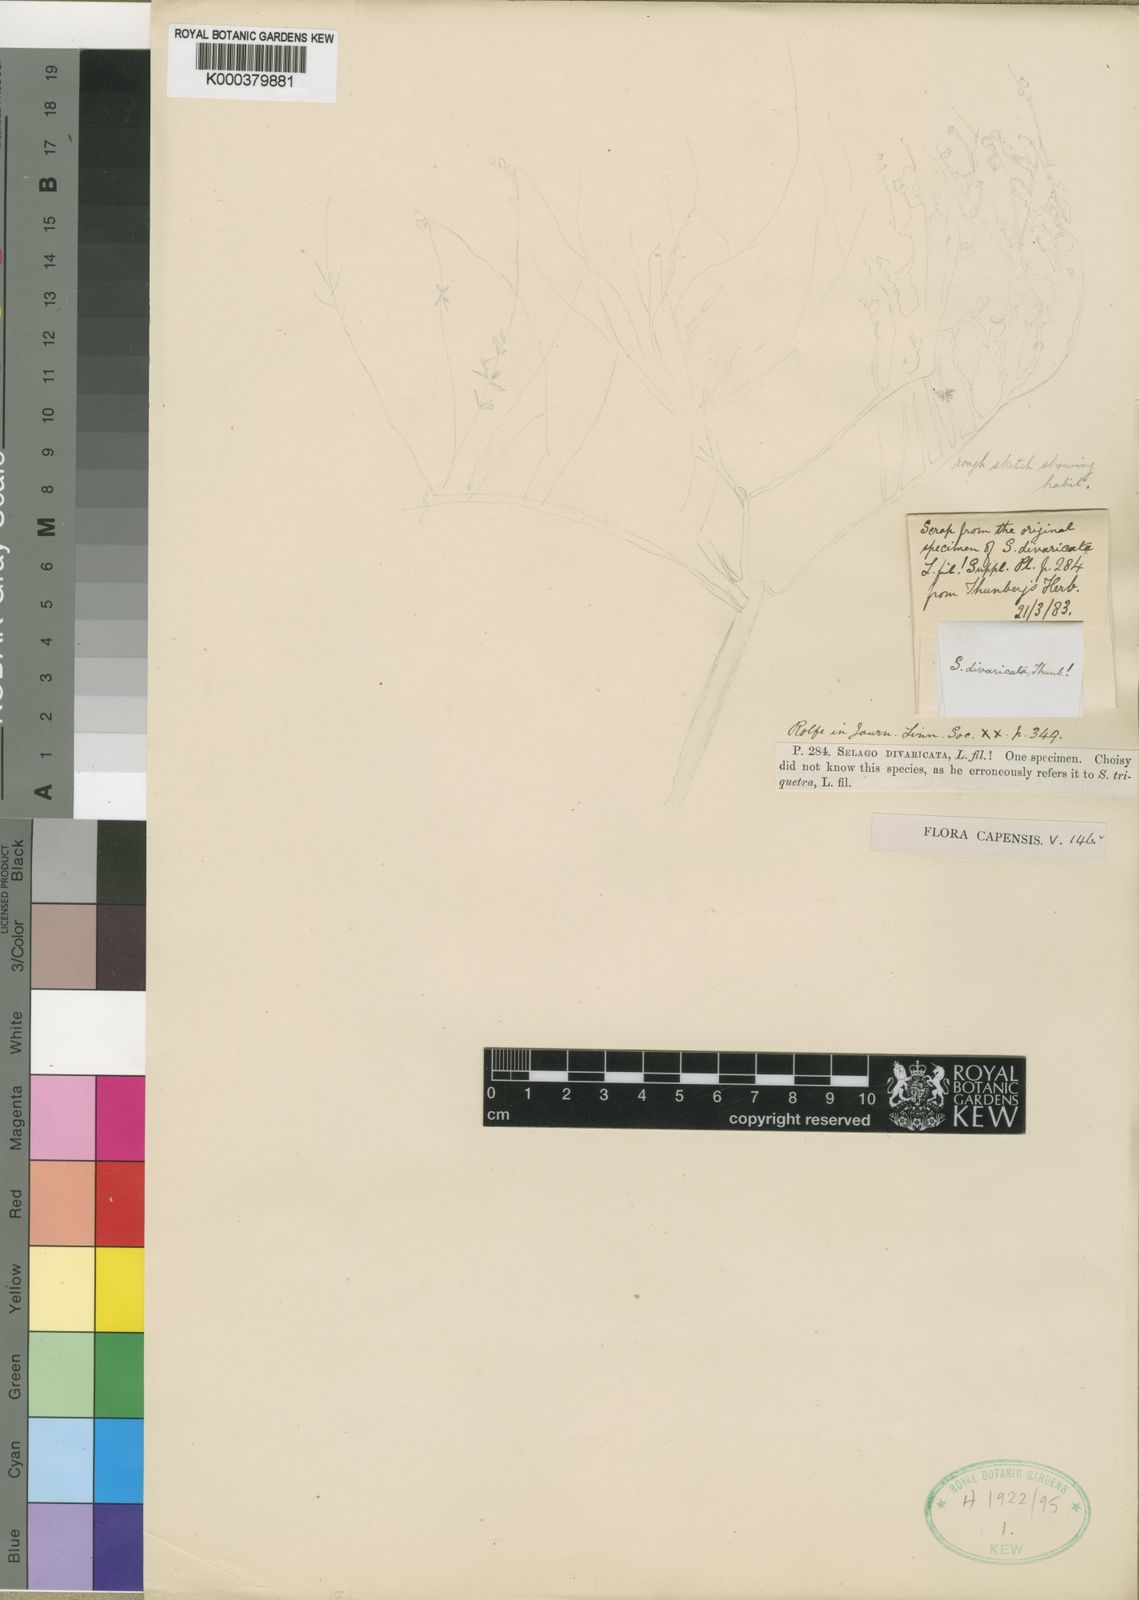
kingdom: Plantae
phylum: Tracheophyta
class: Magnoliopsida
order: Lamiales
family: Scrophulariaceae
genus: Selago
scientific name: Selago divaricata
